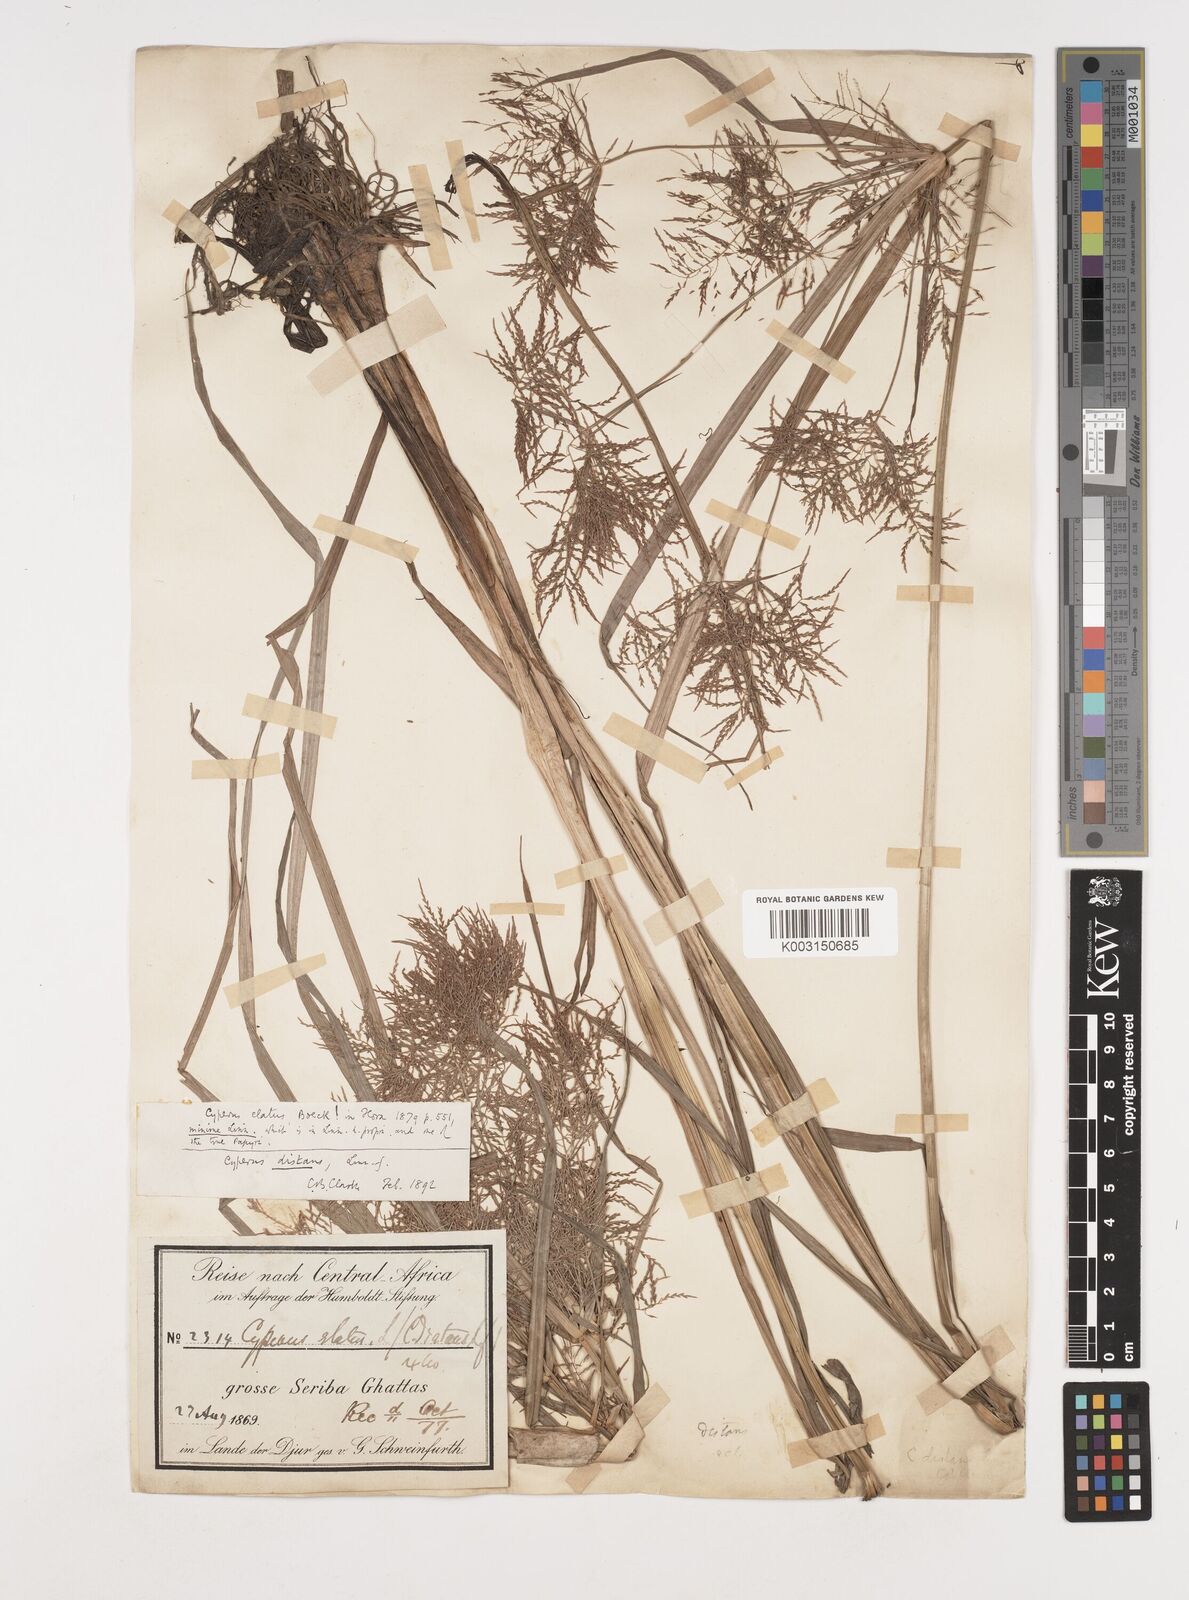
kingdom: Plantae
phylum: Tracheophyta
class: Liliopsida
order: Poales
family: Cyperaceae
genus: Cyperus
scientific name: Cyperus distans
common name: Slender cyperus
